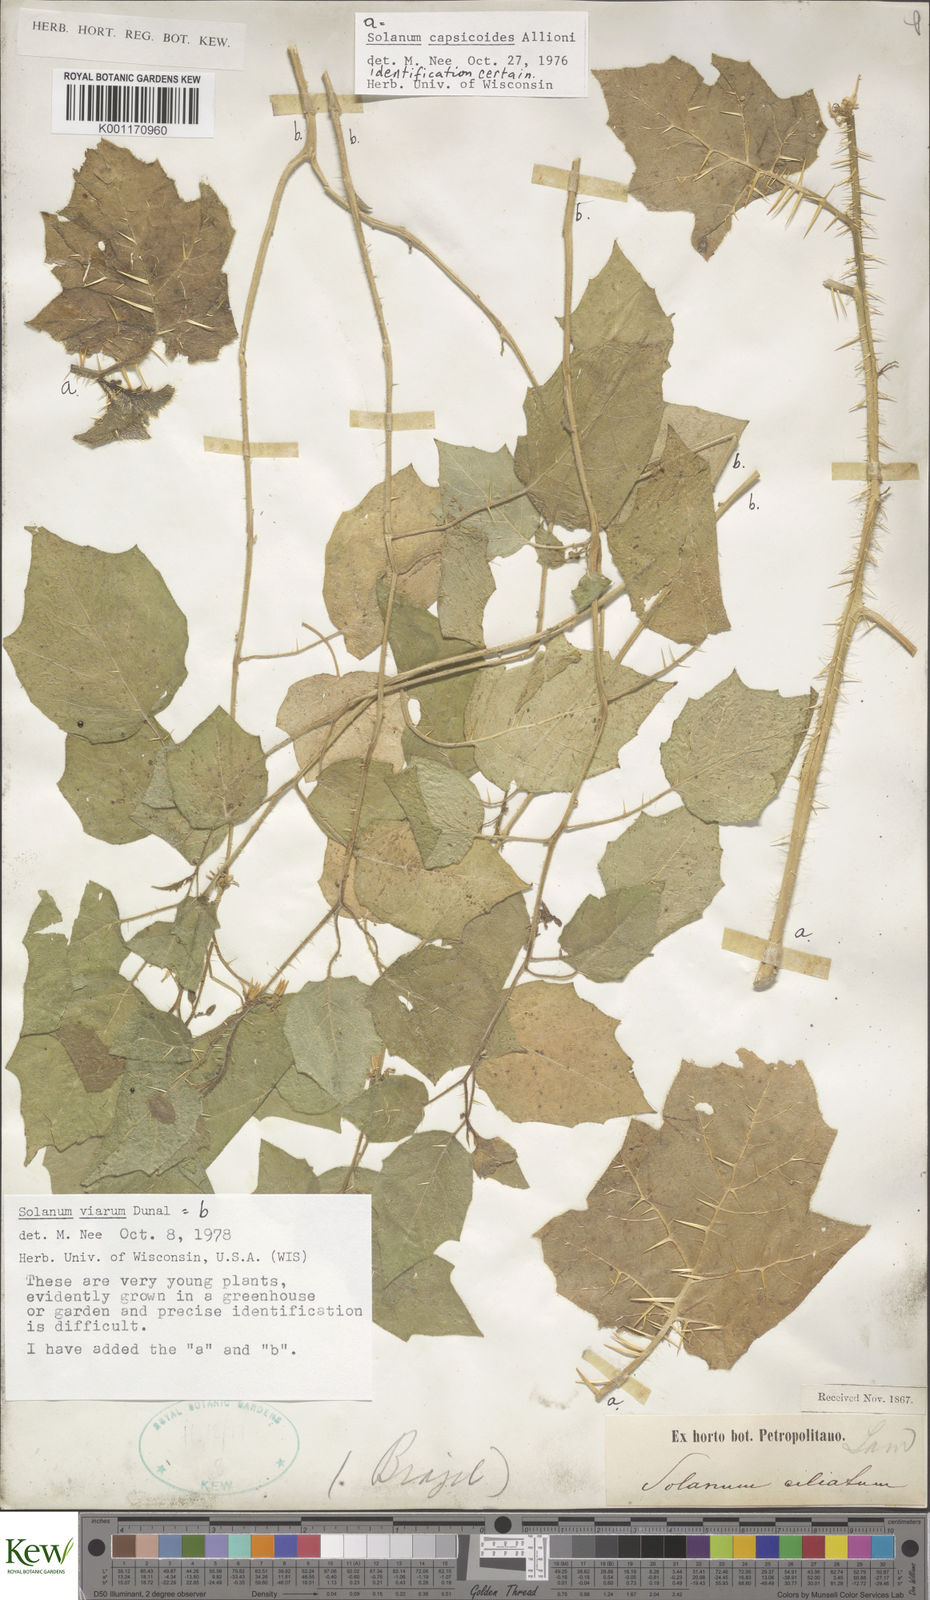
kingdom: Plantae
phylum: Tracheophyta
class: Magnoliopsida
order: Solanales
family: Solanaceae
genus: Solanum
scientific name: Solanum viarum
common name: Tropical soda apple
